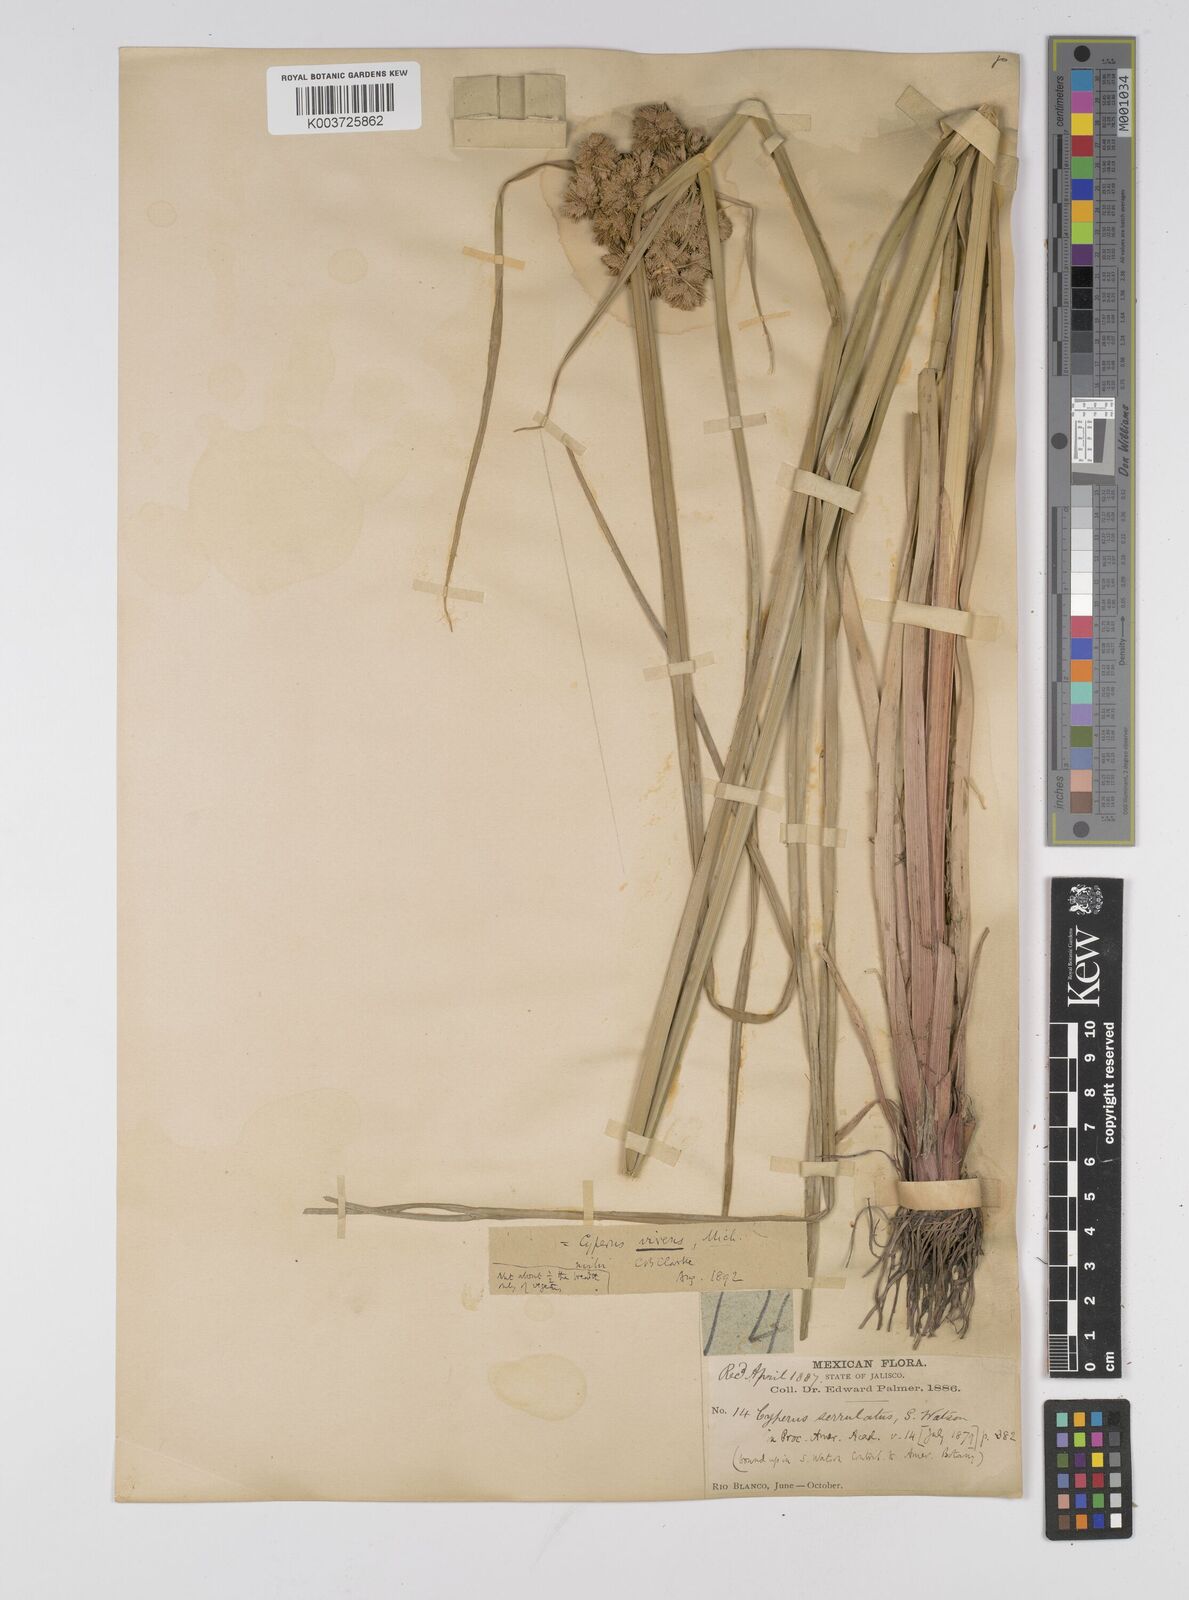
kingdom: Plantae
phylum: Tracheophyta
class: Liliopsida
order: Poales
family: Cyperaceae
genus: Cyperus
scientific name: Cyperus virens
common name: Green flatsedge
